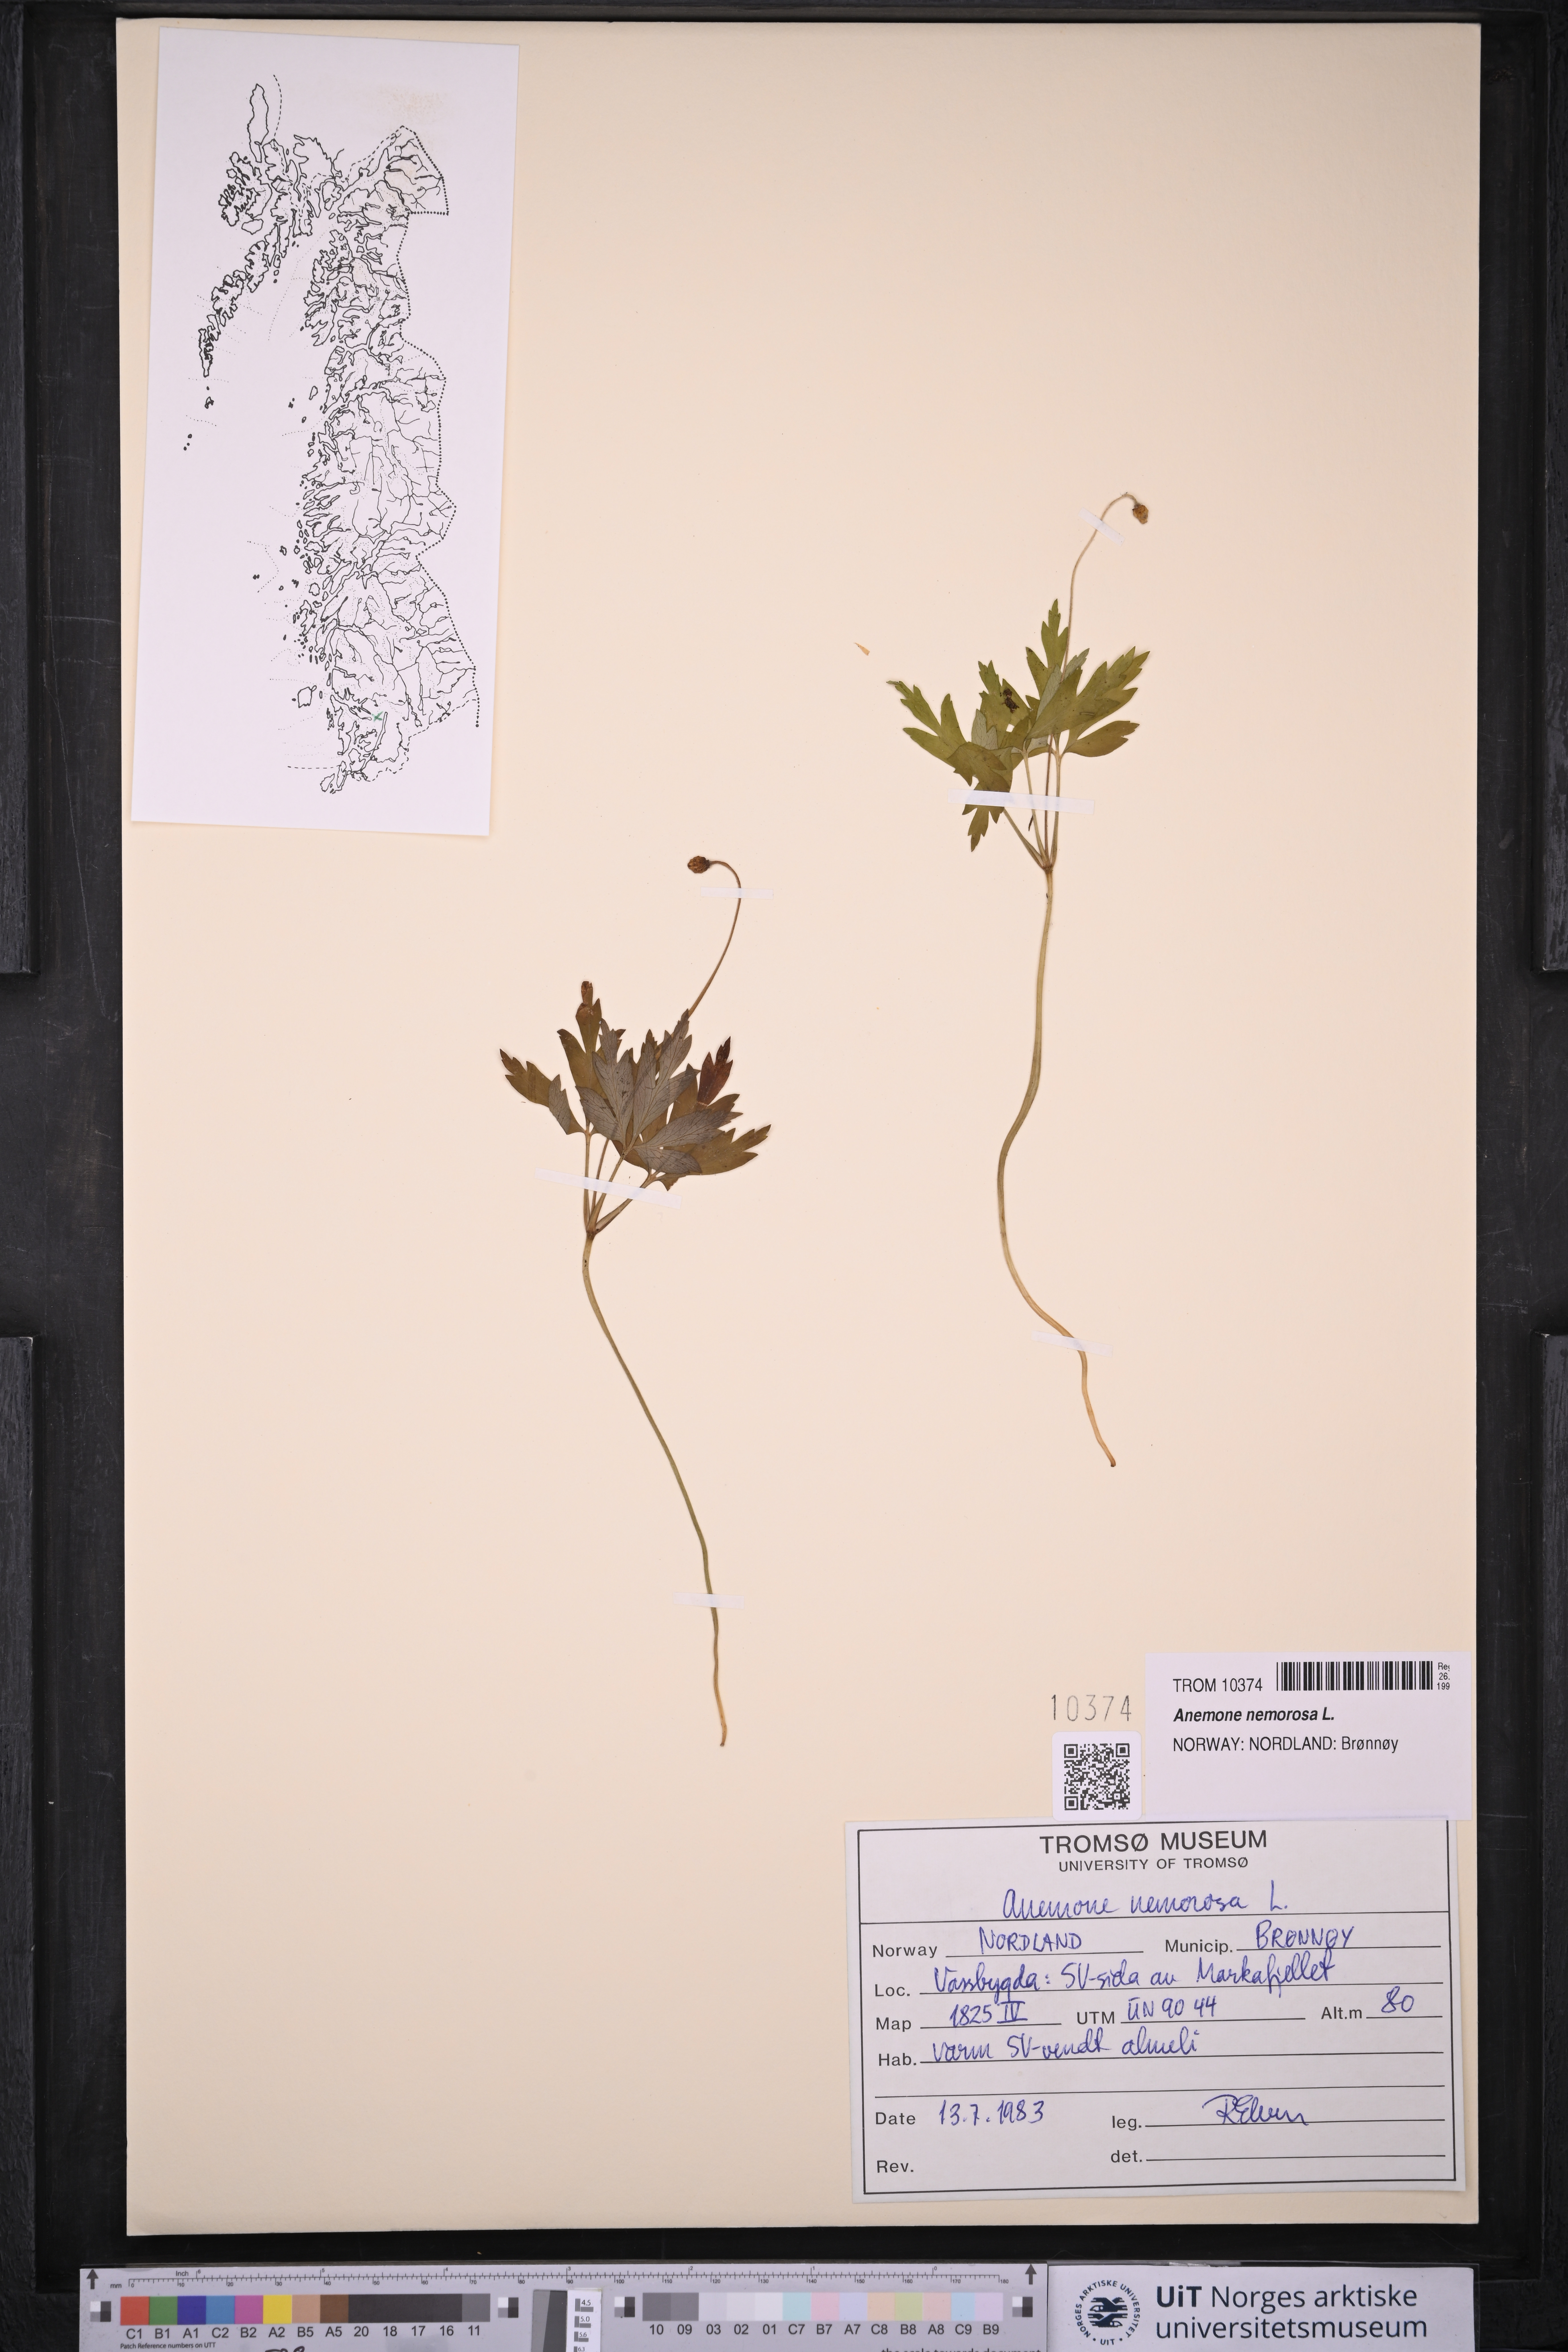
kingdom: Plantae
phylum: Tracheophyta
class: Magnoliopsida
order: Ranunculales
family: Ranunculaceae
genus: Anemone
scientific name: Anemone nemorosa
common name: Wood anemone
